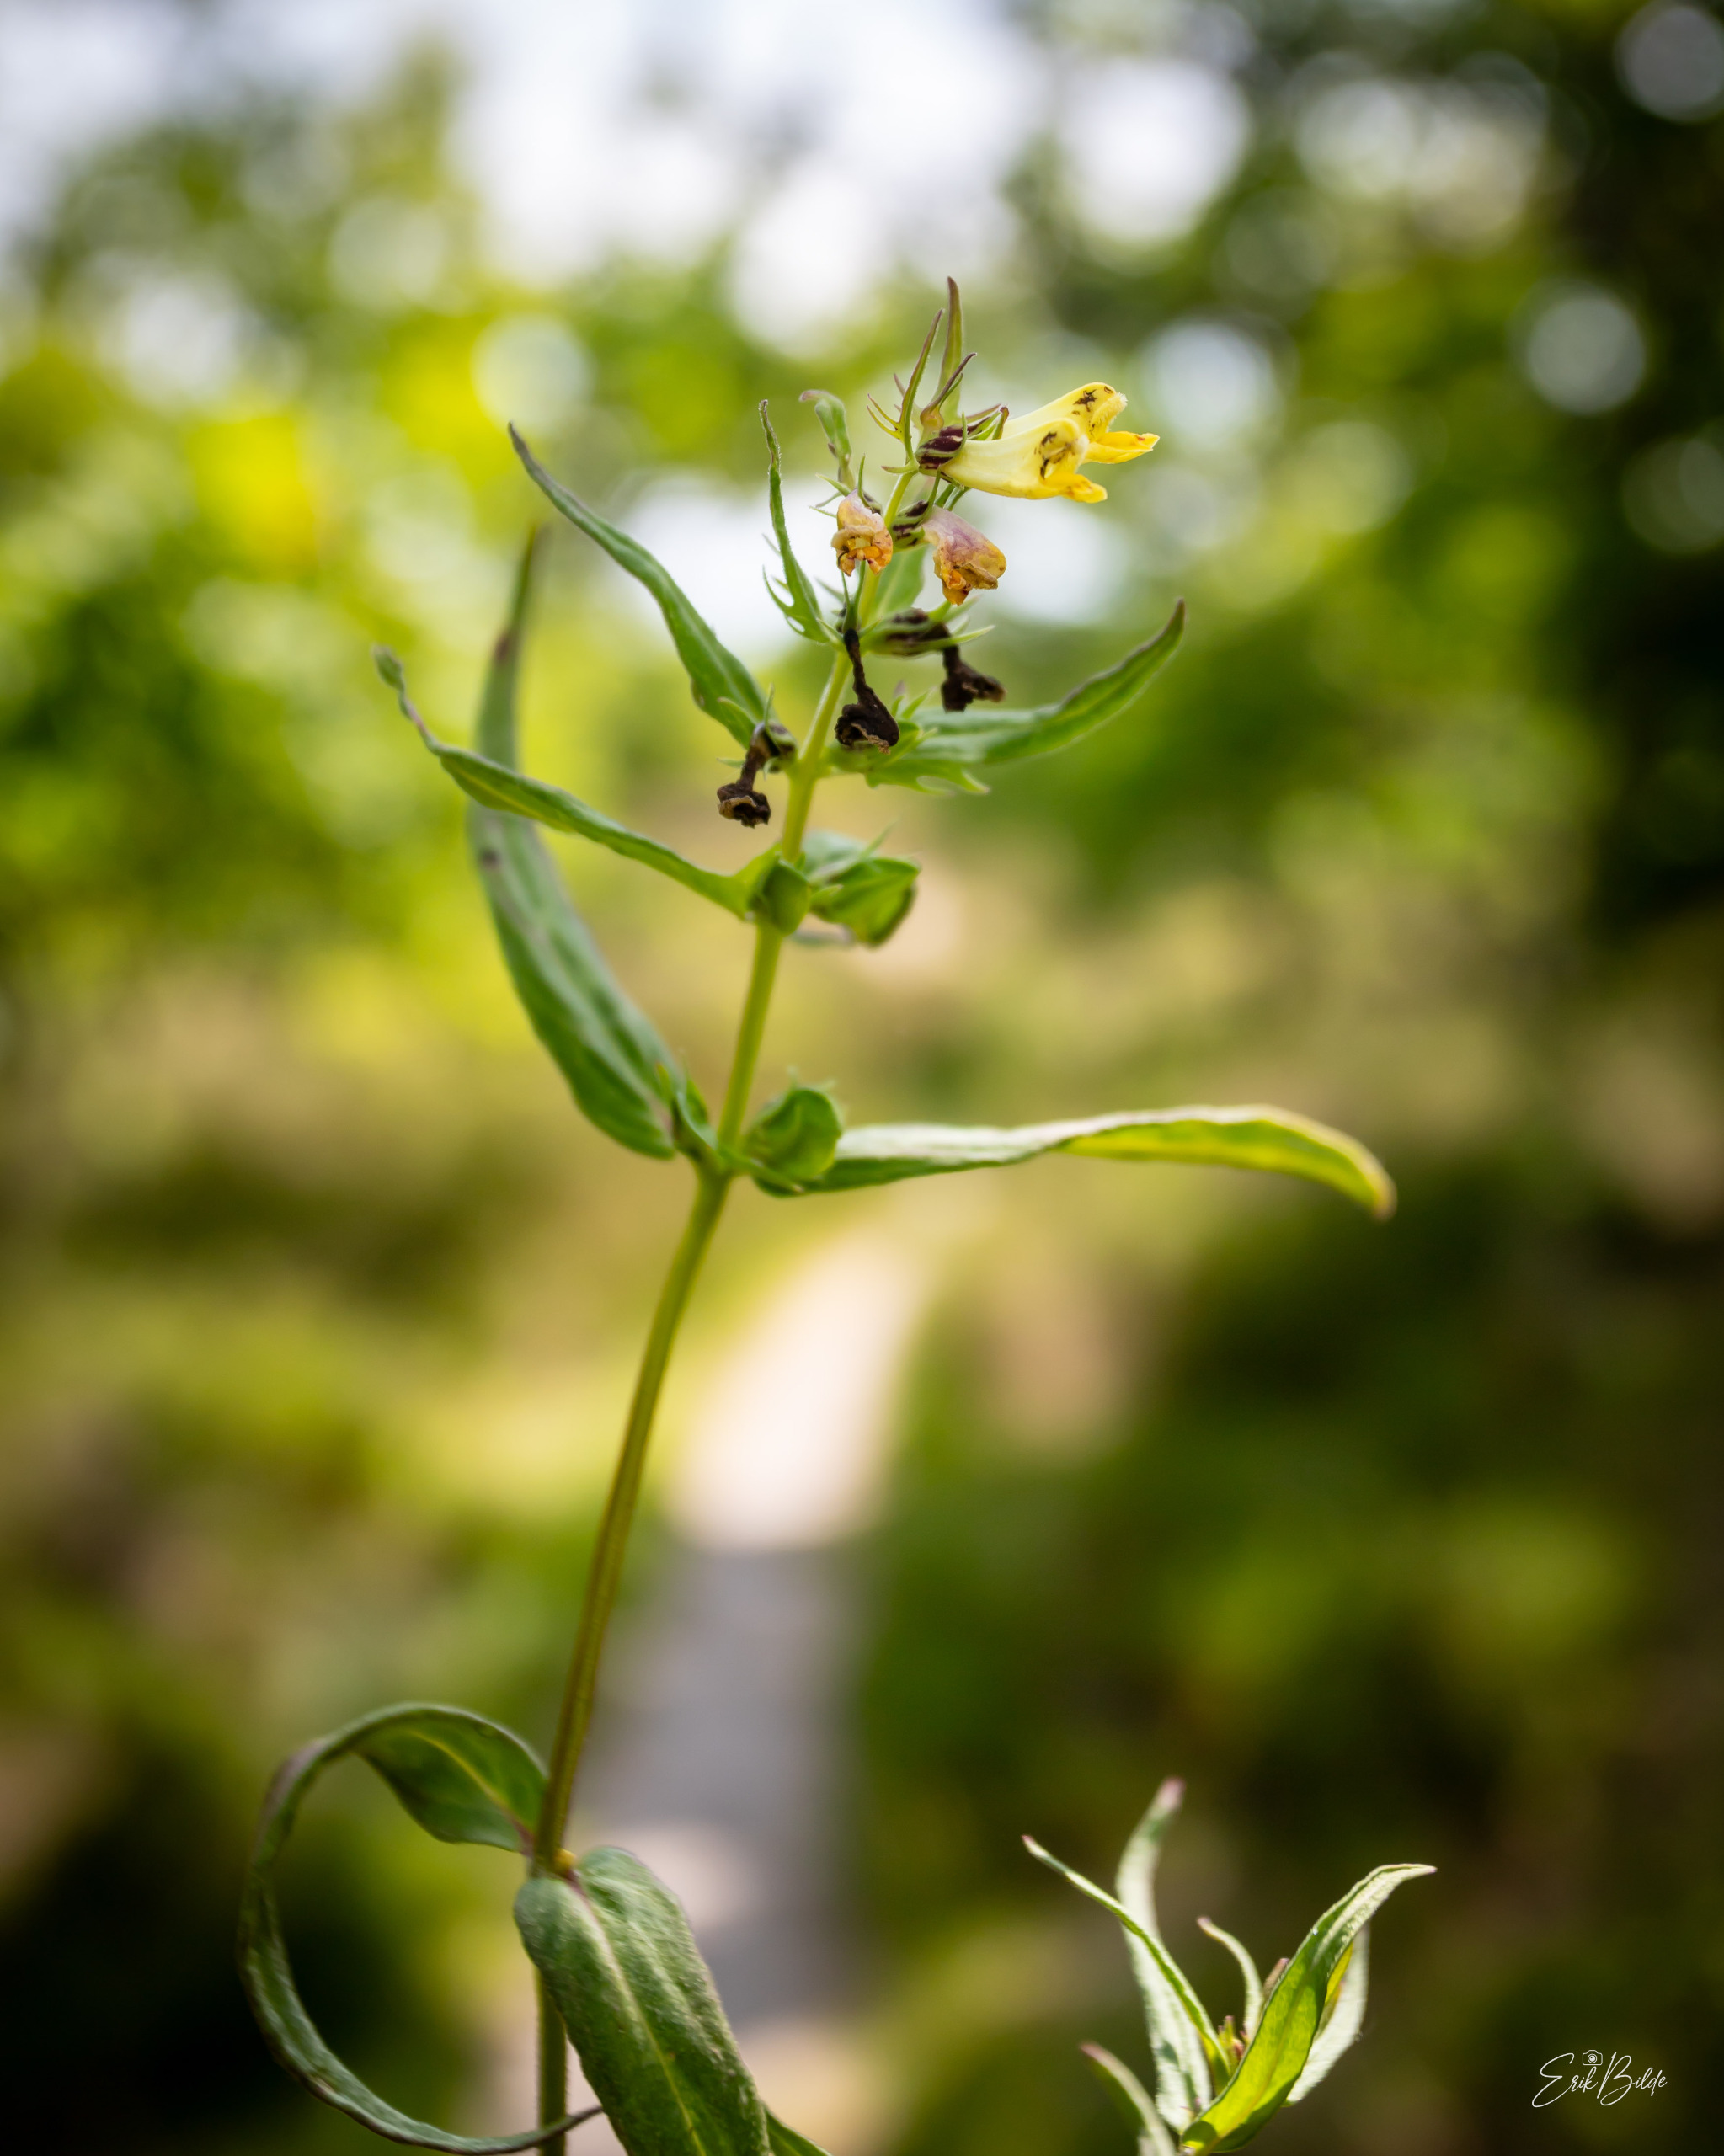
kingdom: Plantae
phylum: Tracheophyta
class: Magnoliopsida
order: Lamiales
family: Orobanchaceae
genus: Melampyrum
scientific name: Melampyrum pratense
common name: Almindelig kohvede
